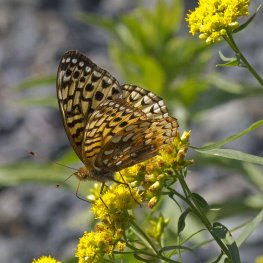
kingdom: Animalia
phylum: Arthropoda
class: Insecta
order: Lepidoptera
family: Nymphalidae
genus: Speyeria
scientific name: Speyeria cybele
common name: Great Spangled Fritillary
